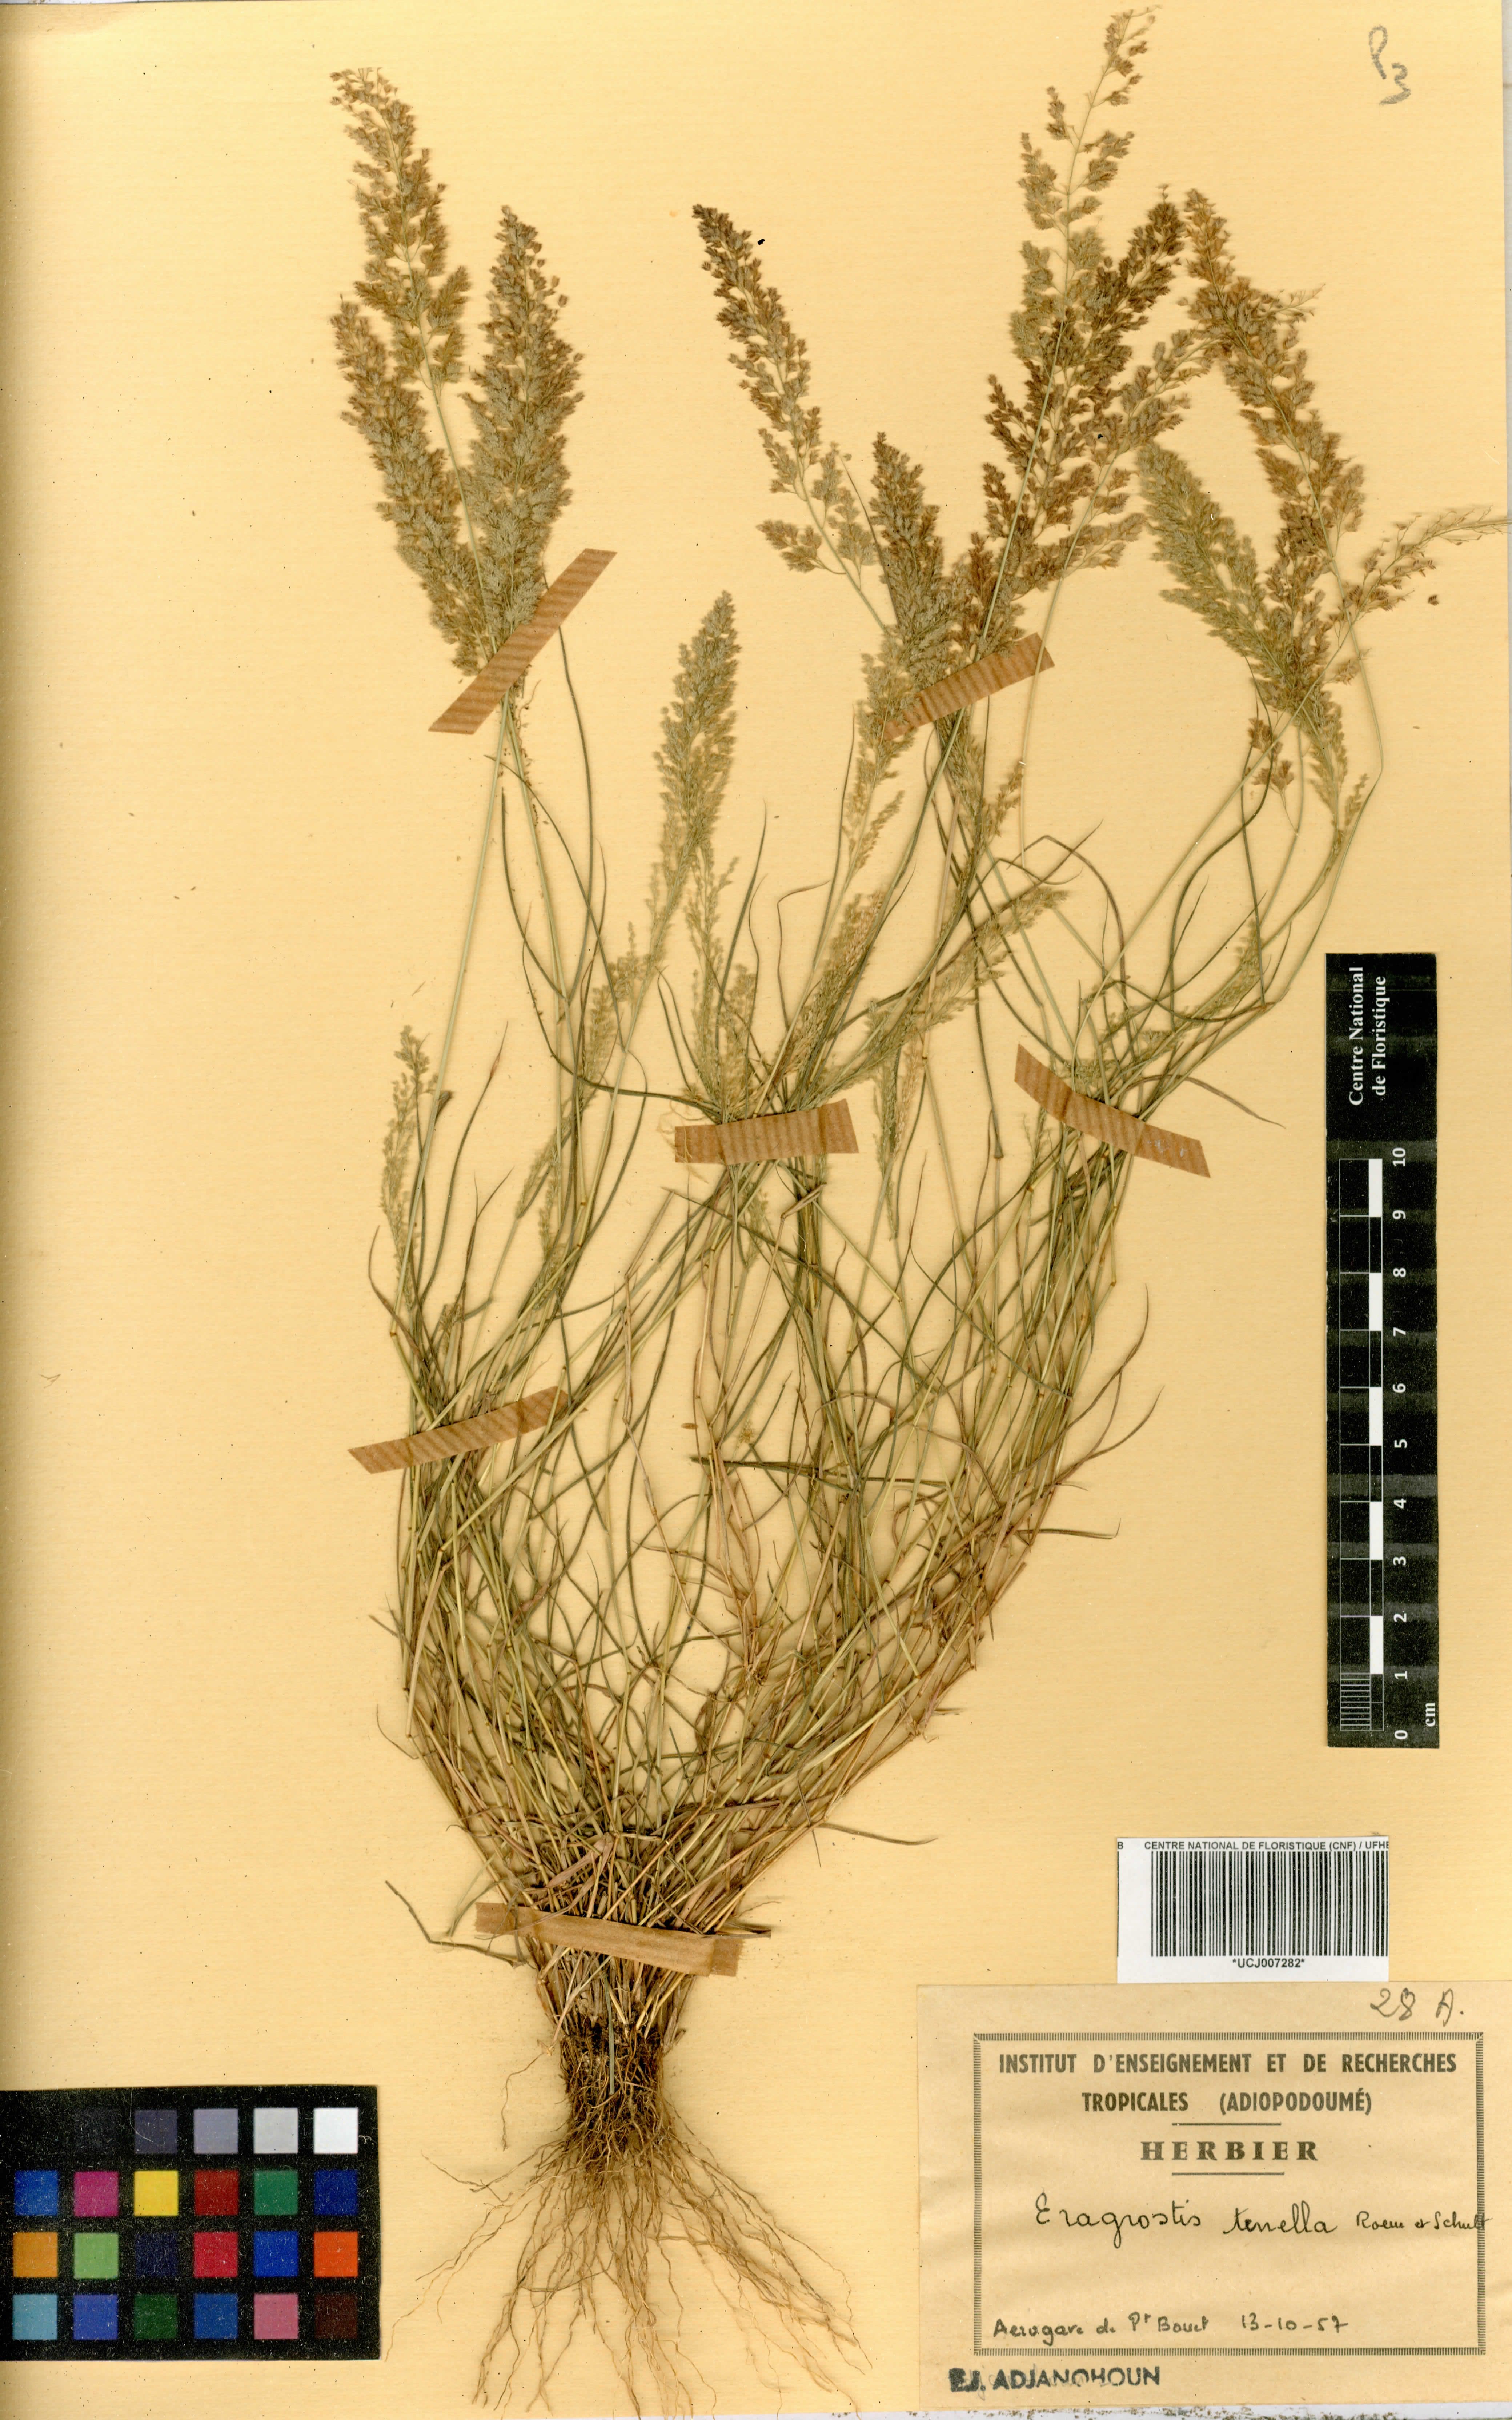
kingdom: Plantae
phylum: Tracheophyta
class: Liliopsida
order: Poales
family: Poaceae
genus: Eragrostis
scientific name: Eragrostis tenella
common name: Japanese lovegrass
